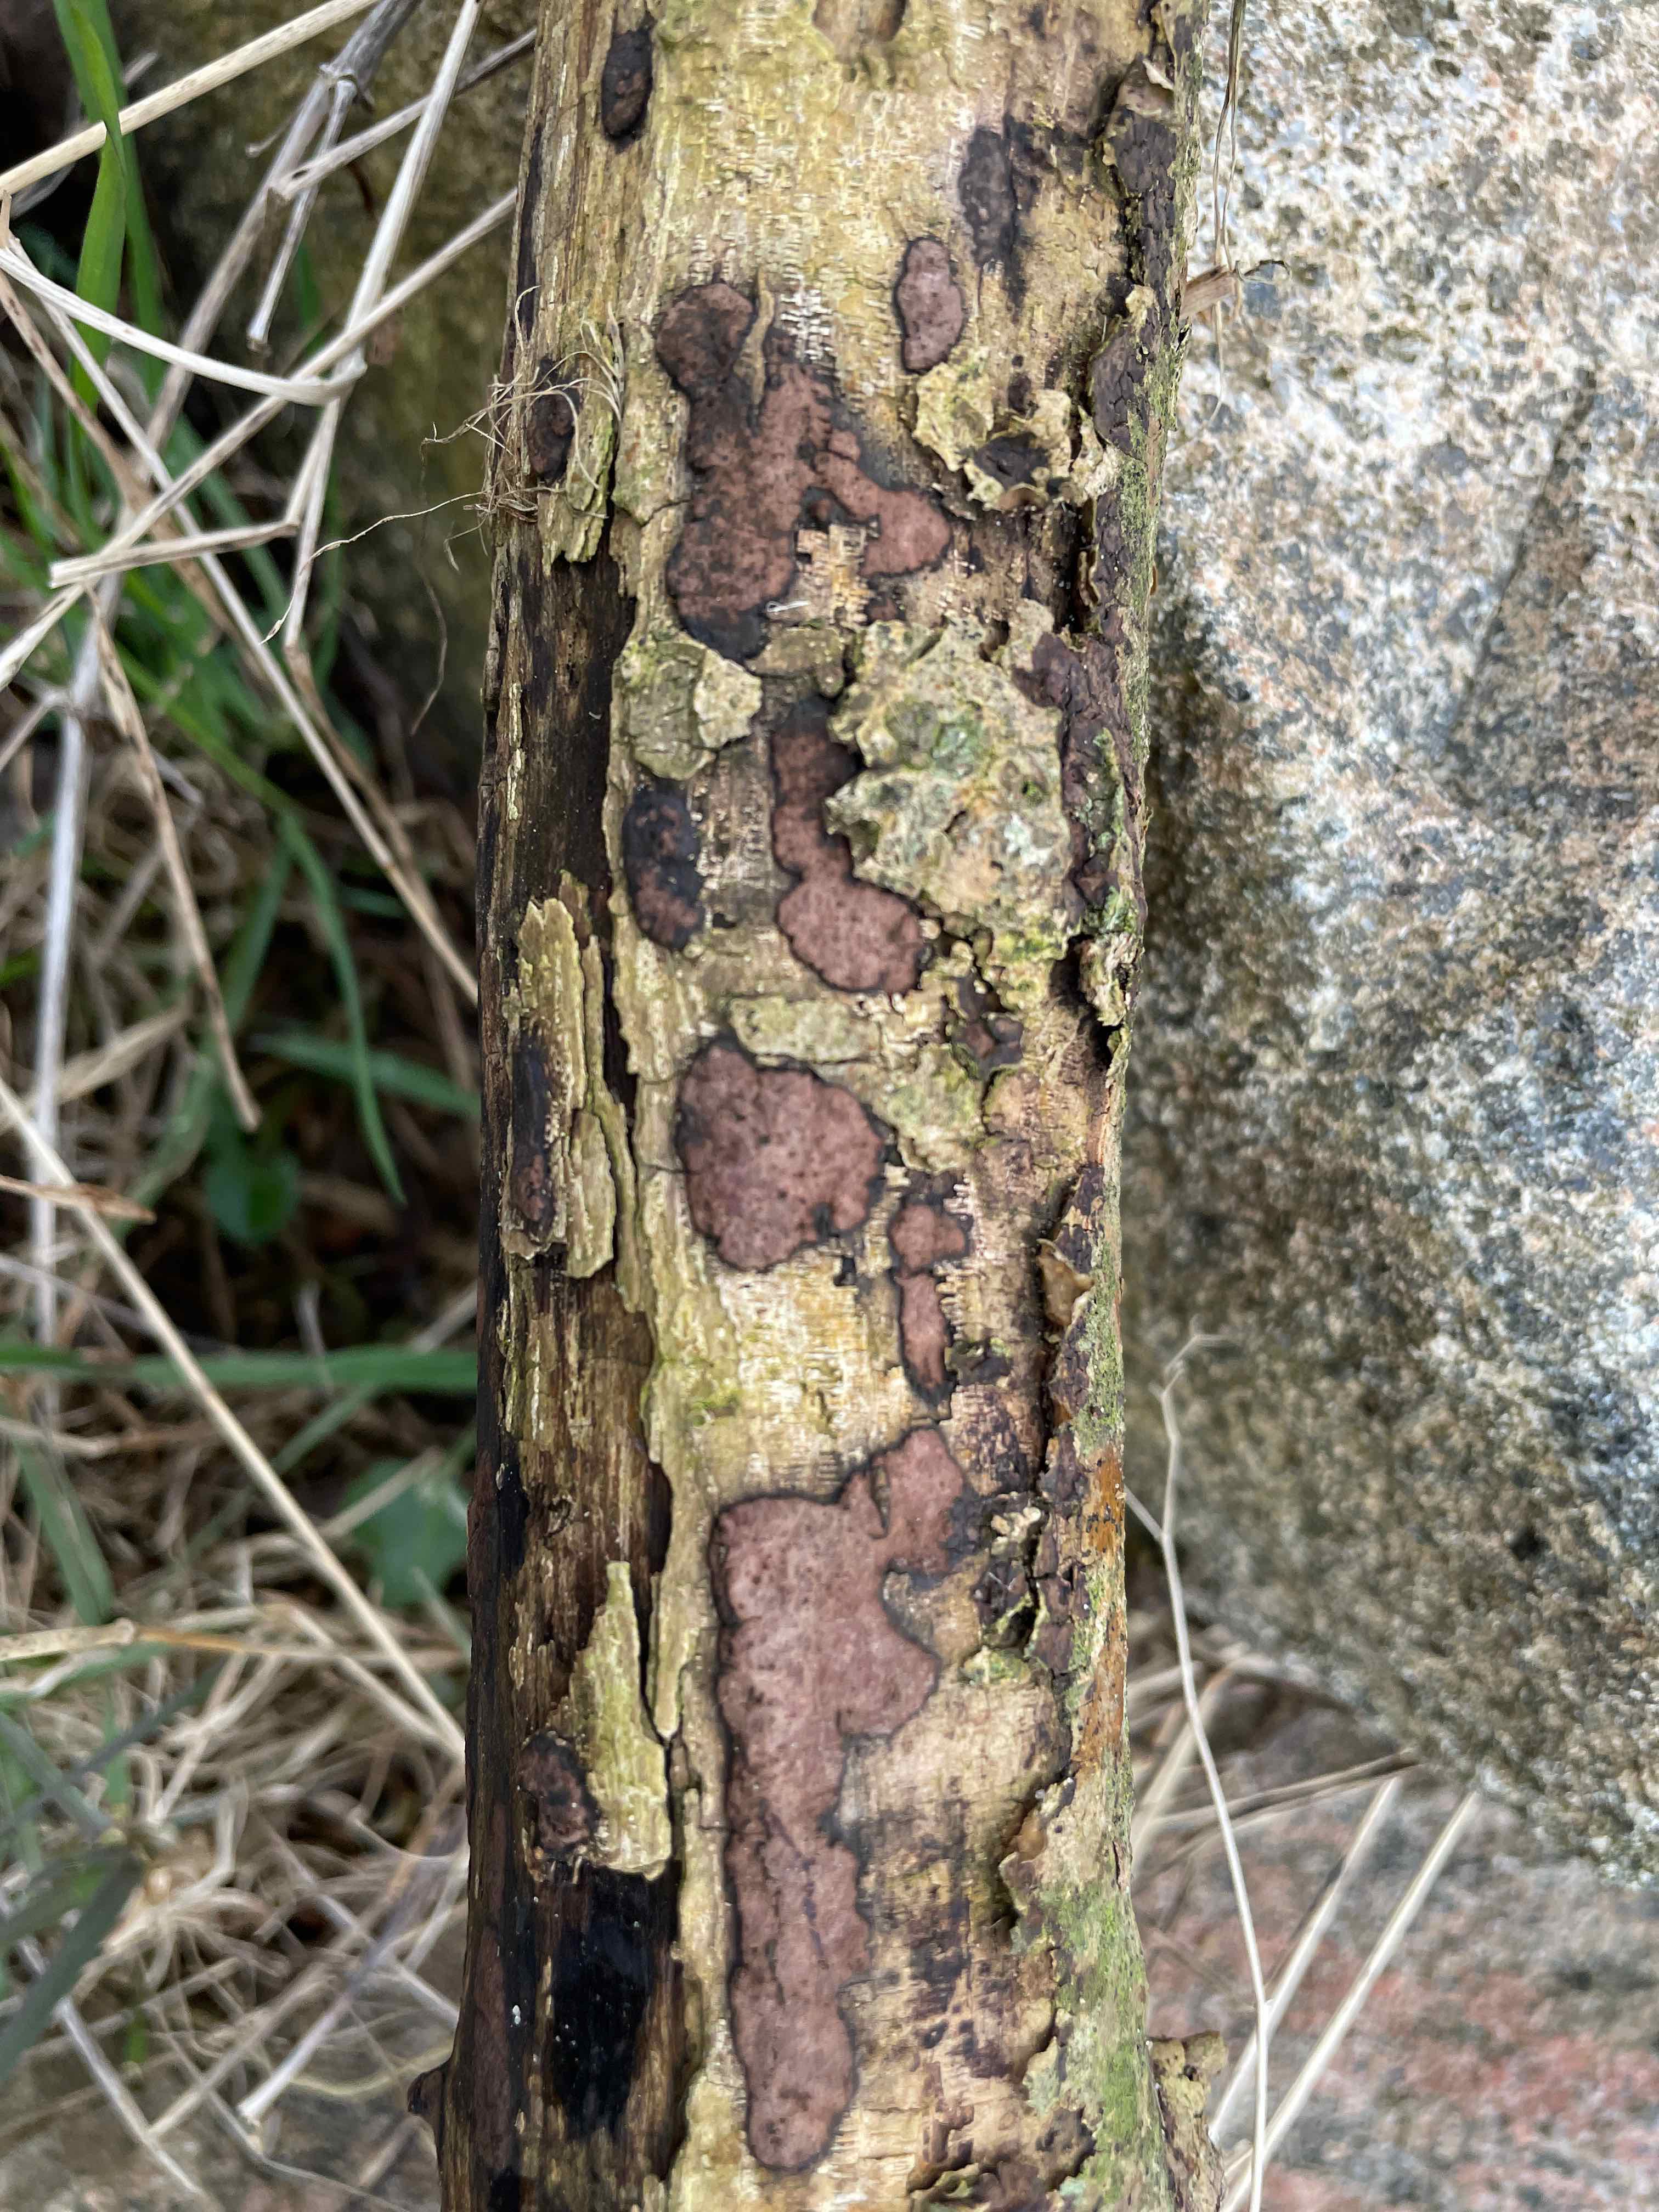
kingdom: Fungi
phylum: Ascomycota
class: Sordariomycetes
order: Xylariales
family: Hypoxylaceae
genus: Hypoxylon
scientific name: Hypoxylon petriniae
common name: nedsænket kulbær
